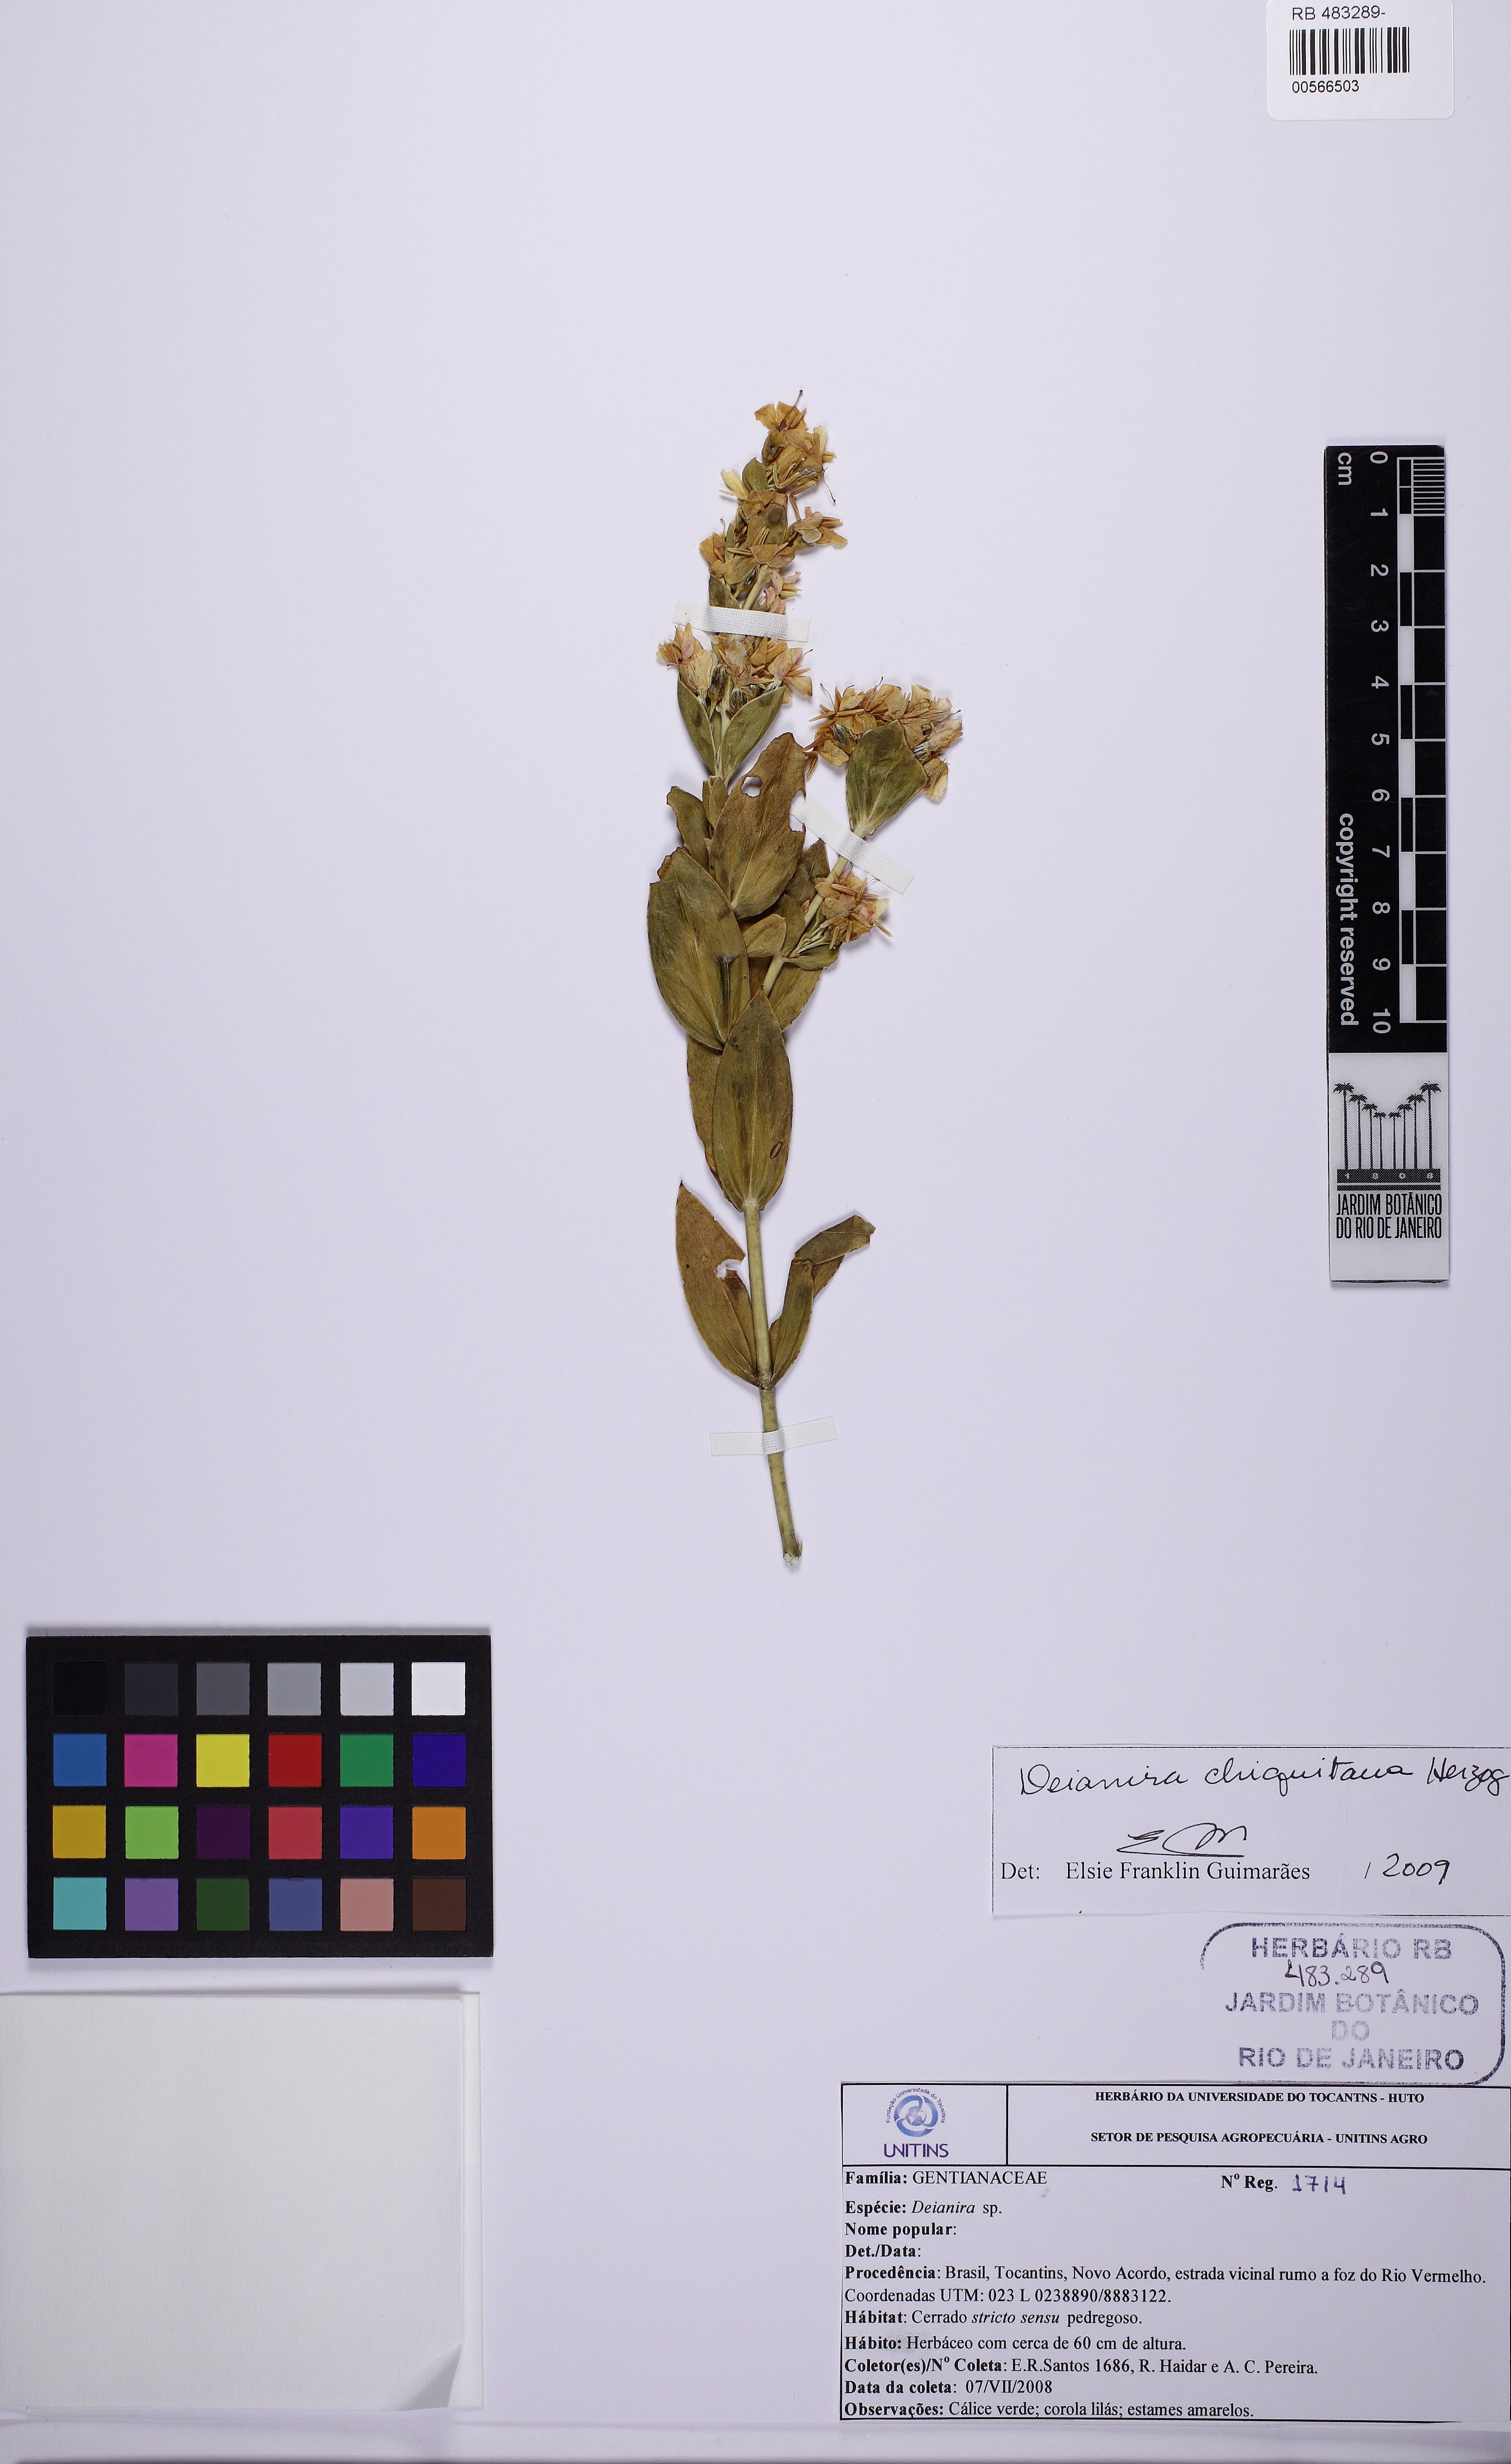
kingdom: Plantae
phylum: Tracheophyta
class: Magnoliopsida
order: Gentianales
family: Gentianaceae
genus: Deianira
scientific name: Deianira chiquitana
